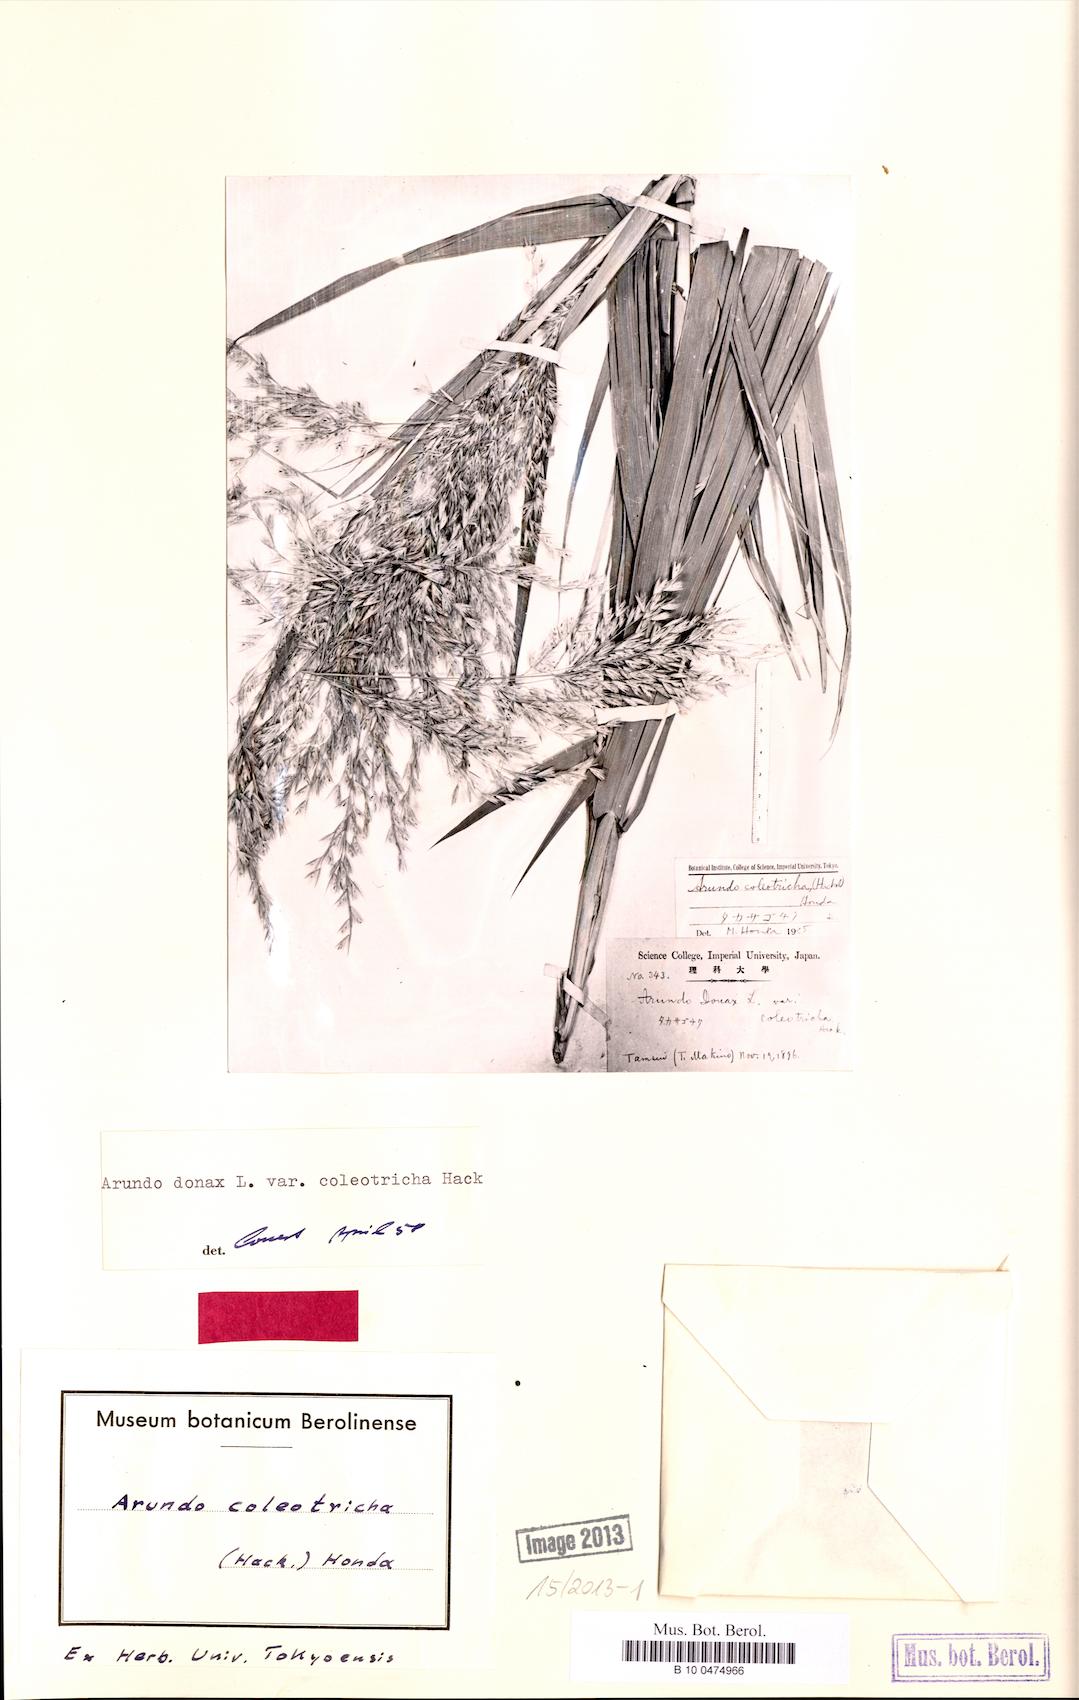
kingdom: Plantae
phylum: Tracheophyta
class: Liliopsida
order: Poales
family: Poaceae
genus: Arundo
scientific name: Arundo donax
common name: Giant reed
